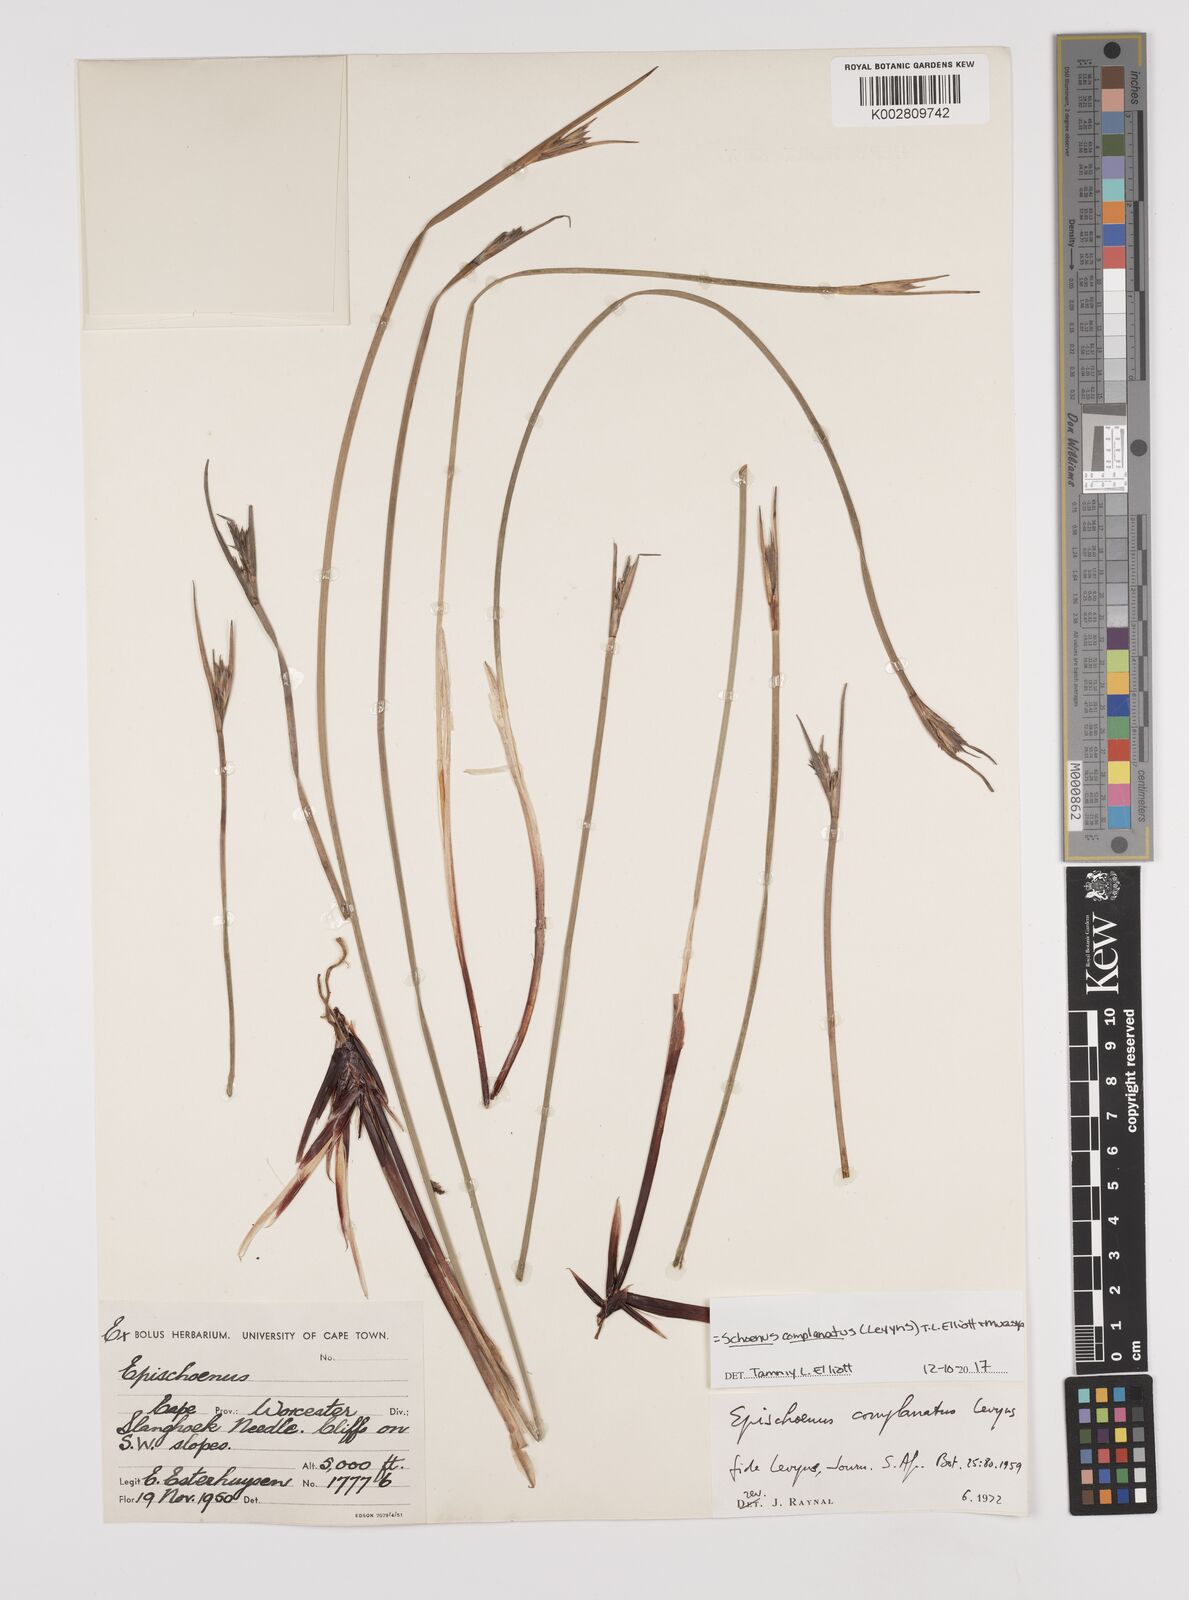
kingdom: Plantae
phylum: Tracheophyta
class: Liliopsida
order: Poales
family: Cyperaceae
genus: Blysmus
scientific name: Blysmus compressus
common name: Flat-sedge
